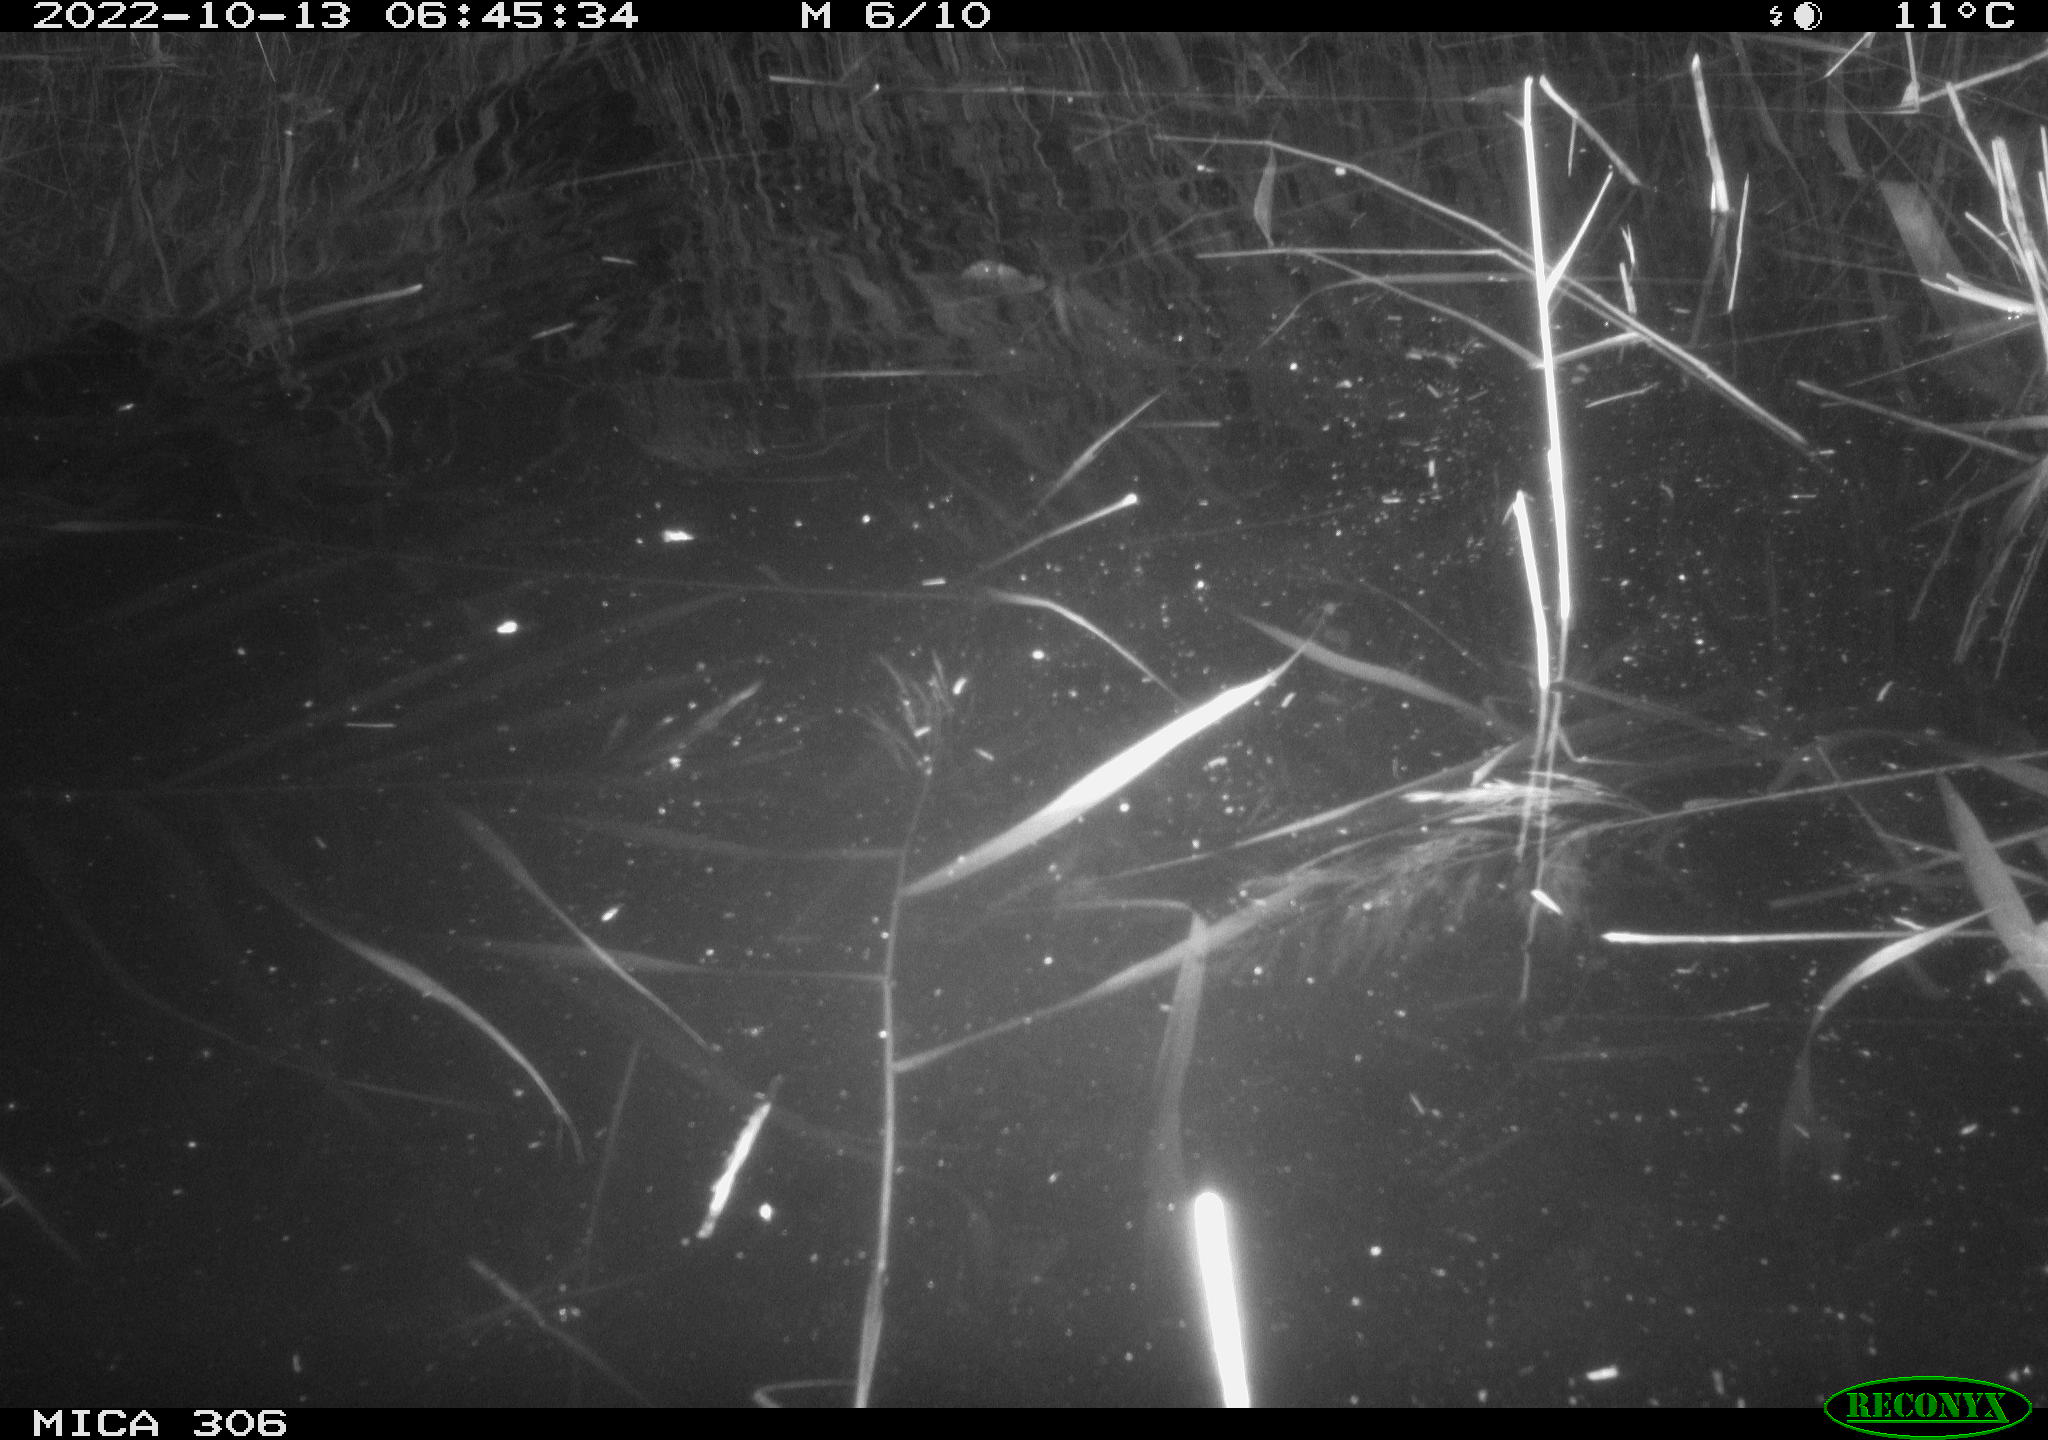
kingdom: Animalia
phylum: Chordata
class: Mammalia
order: Rodentia
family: Muridae
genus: Rattus
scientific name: Rattus norvegicus
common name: Brown rat
